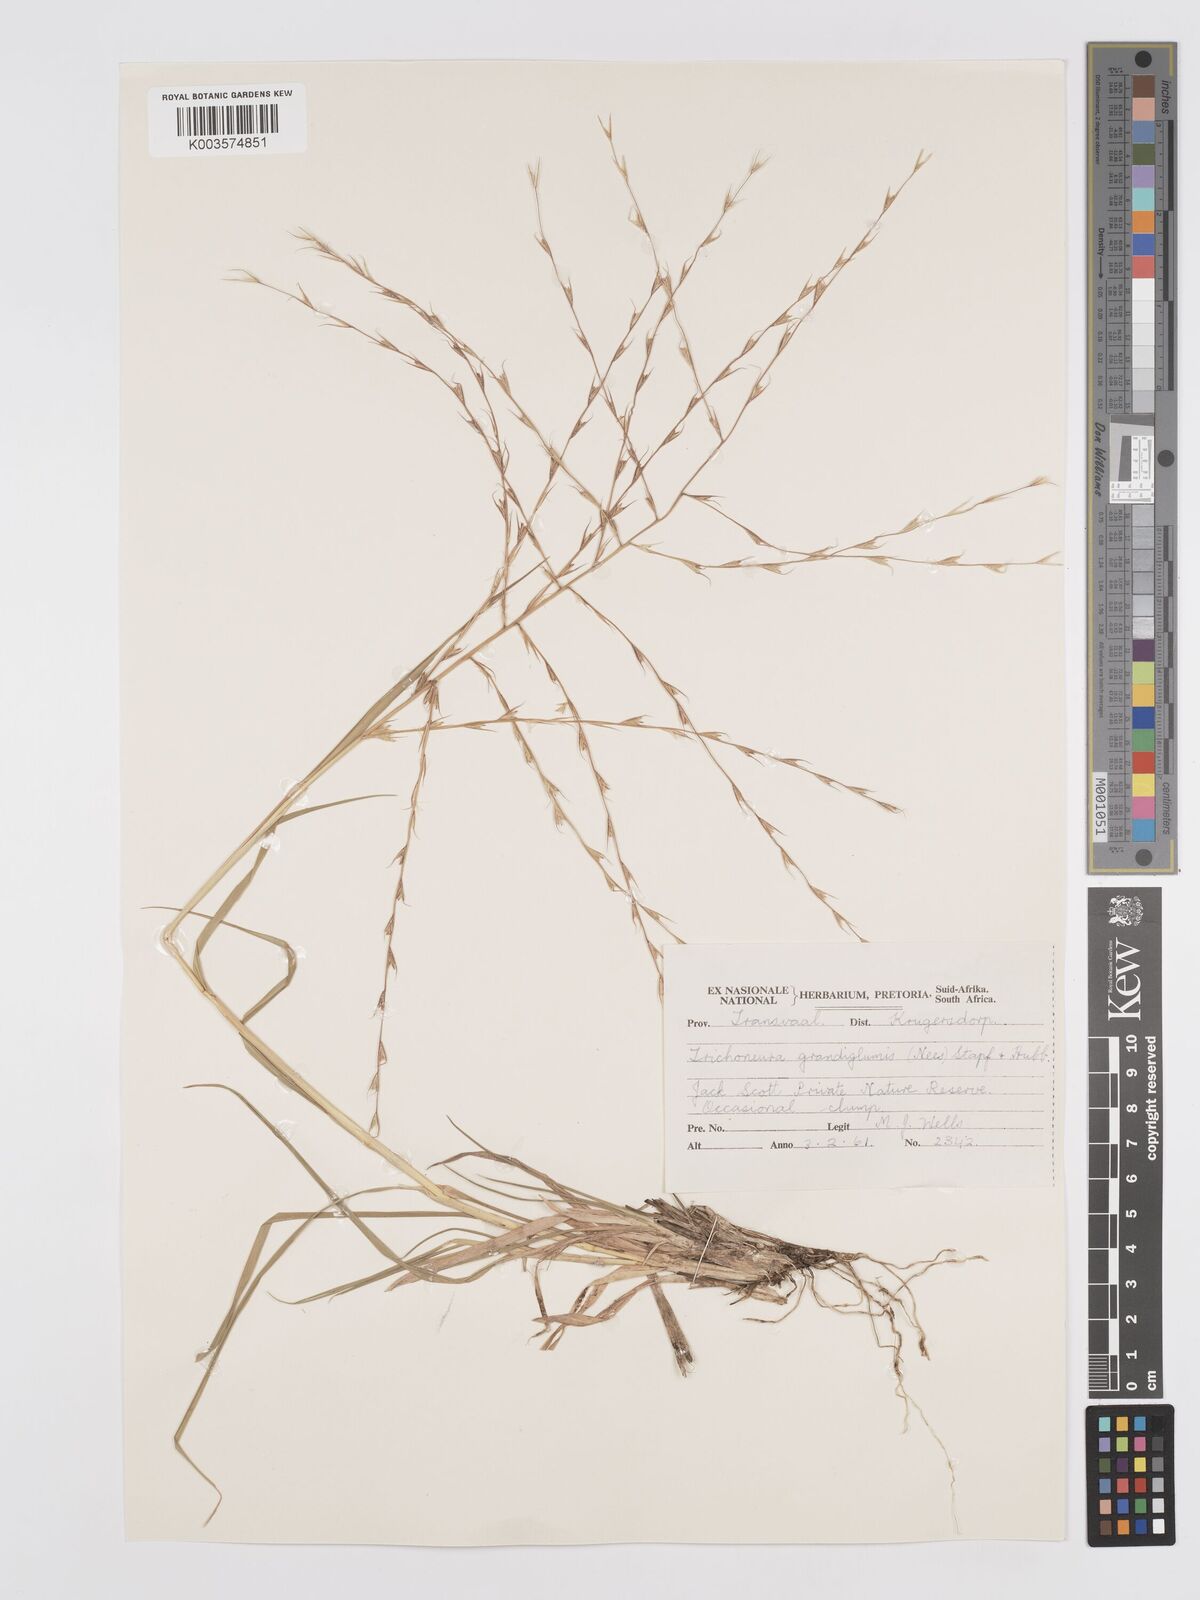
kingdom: Plantae
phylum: Tracheophyta
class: Liliopsida
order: Poales
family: Poaceae
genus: Trichoneura
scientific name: Trichoneura grandiglumis
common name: Rolling grass
